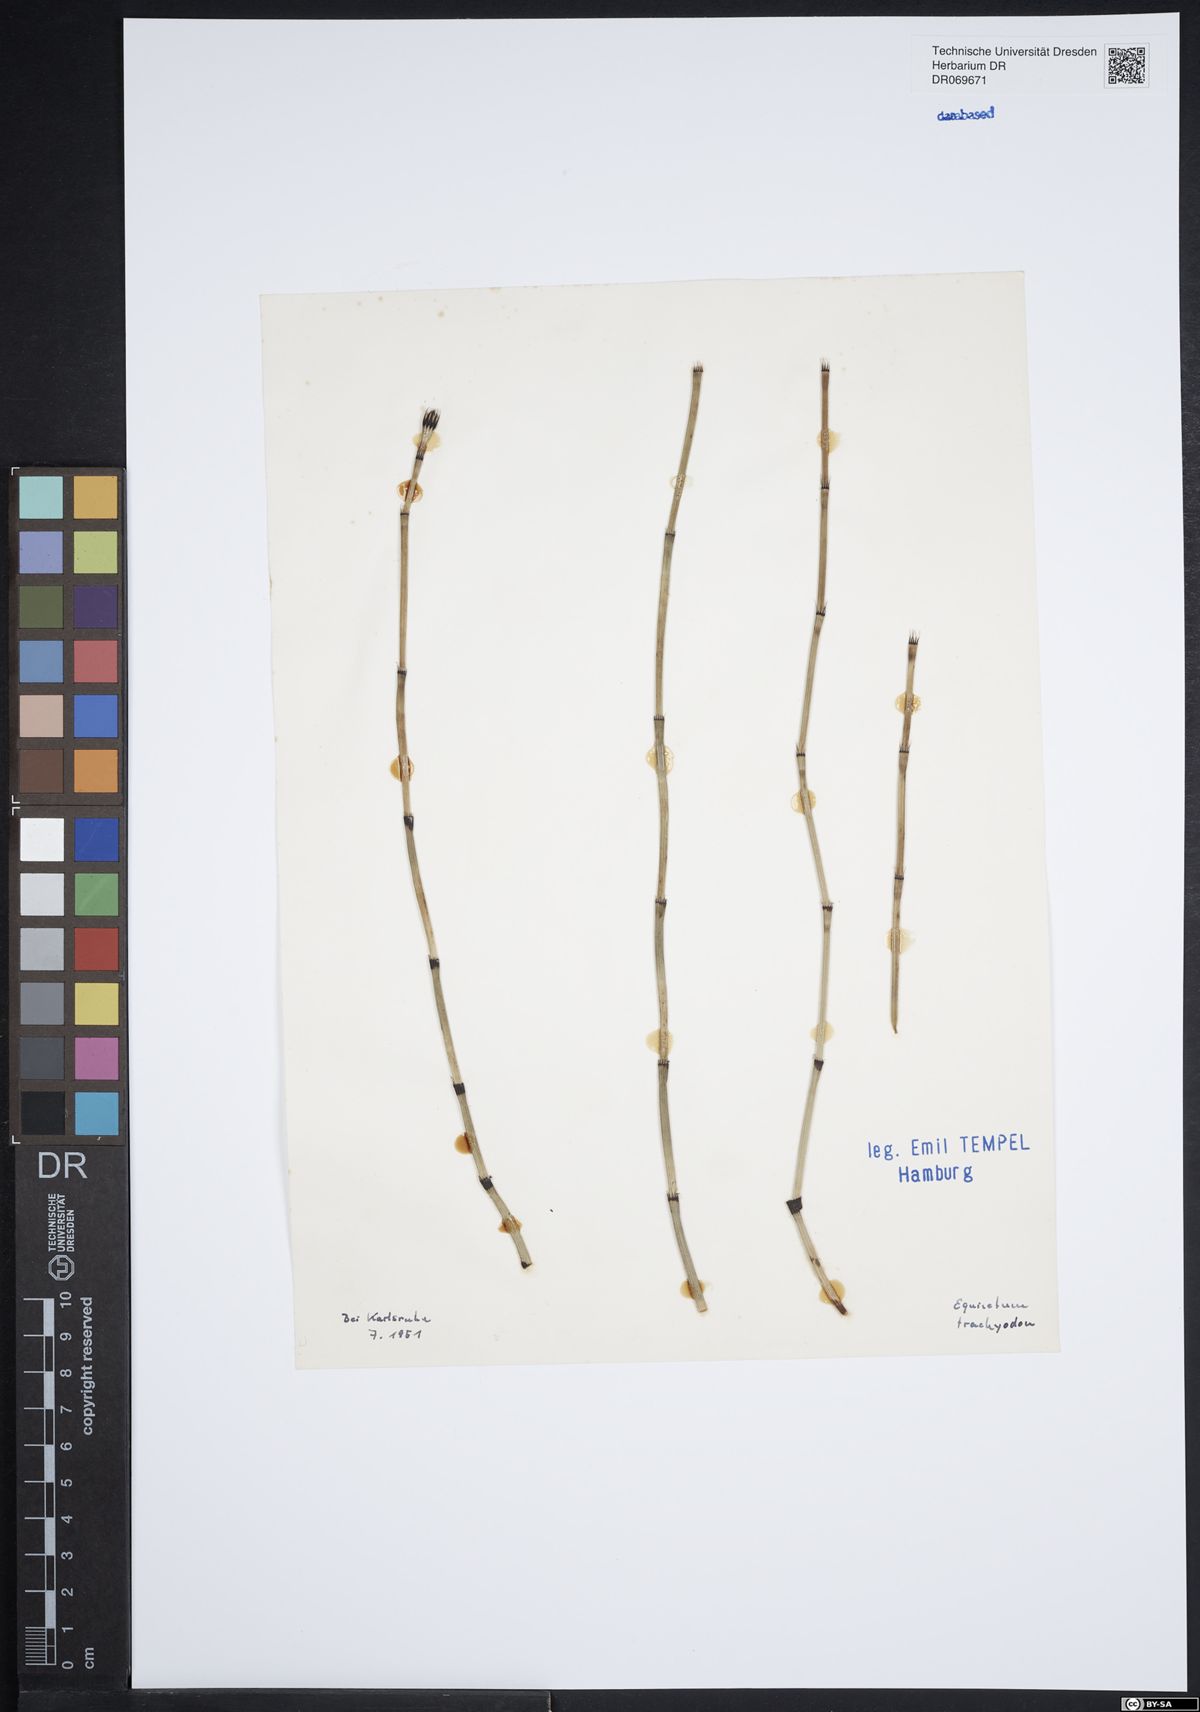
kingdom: Plantae
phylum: Tracheophyta
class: Polypodiopsida
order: Equisetales
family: Equisetaceae
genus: Equisetum
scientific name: Equisetum trachyodon
